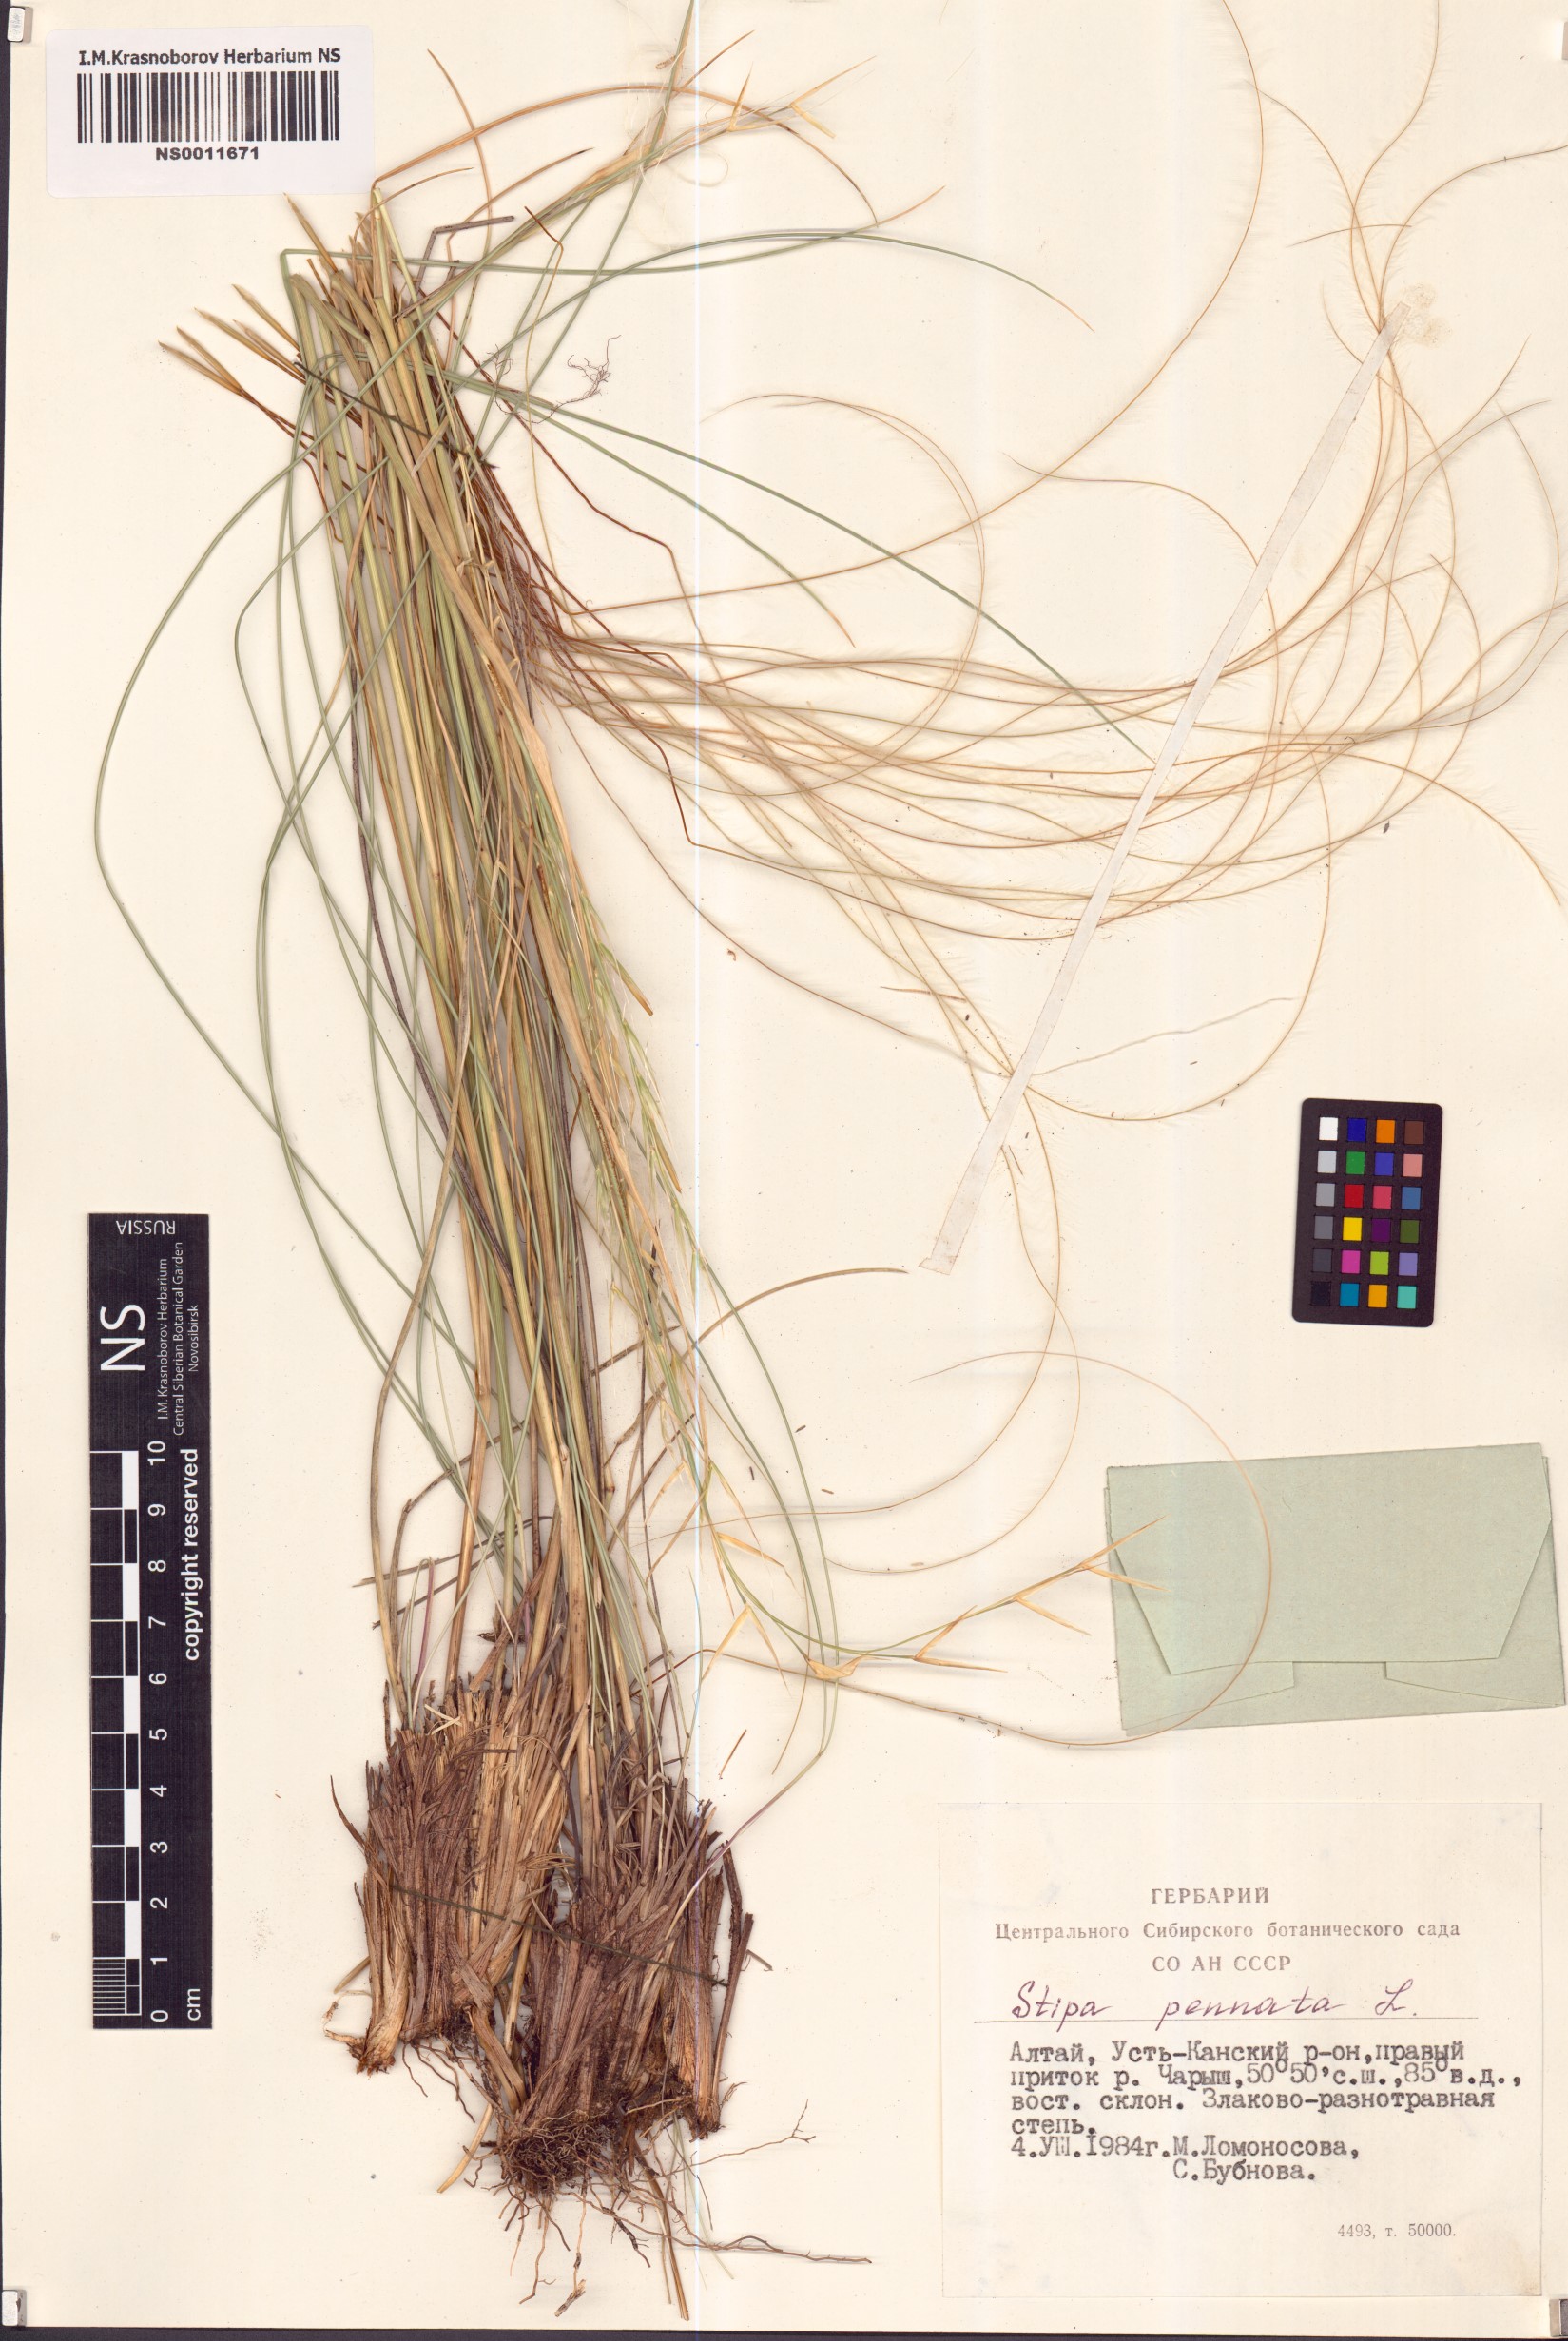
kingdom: Plantae
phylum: Tracheophyta
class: Liliopsida
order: Poales
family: Poaceae
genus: Stipa
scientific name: Stipa pennata
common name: European feather grass
